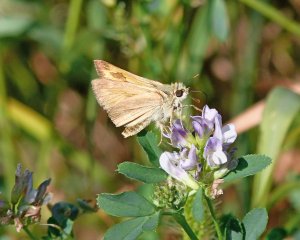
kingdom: Animalia
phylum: Arthropoda
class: Insecta
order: Lepidoptera
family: Hesperiidae
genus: Ochlodes
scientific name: Ochlodes sylvanoides
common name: Woodland Skipper
